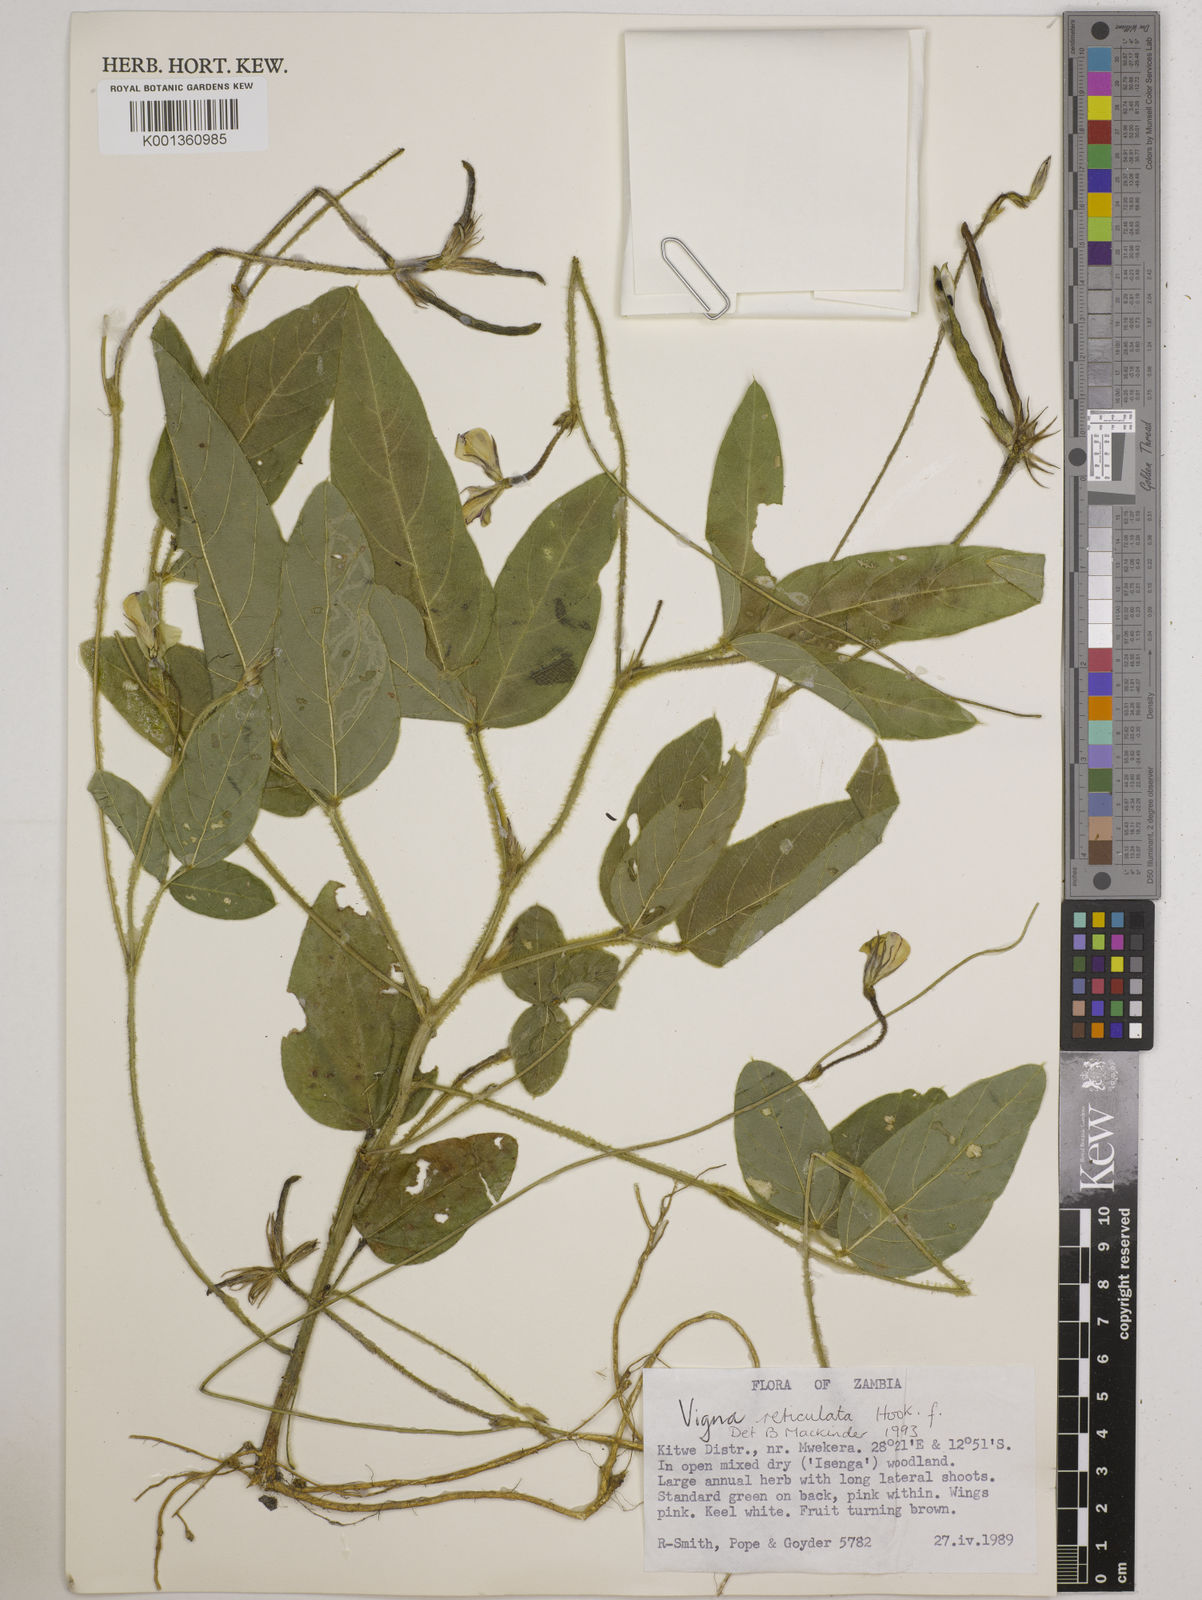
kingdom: Plantae
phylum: Tracheophyta
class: Magnoliopsida
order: Fabales
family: Fabaceae
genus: Vigna
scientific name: Vigna reticulata
